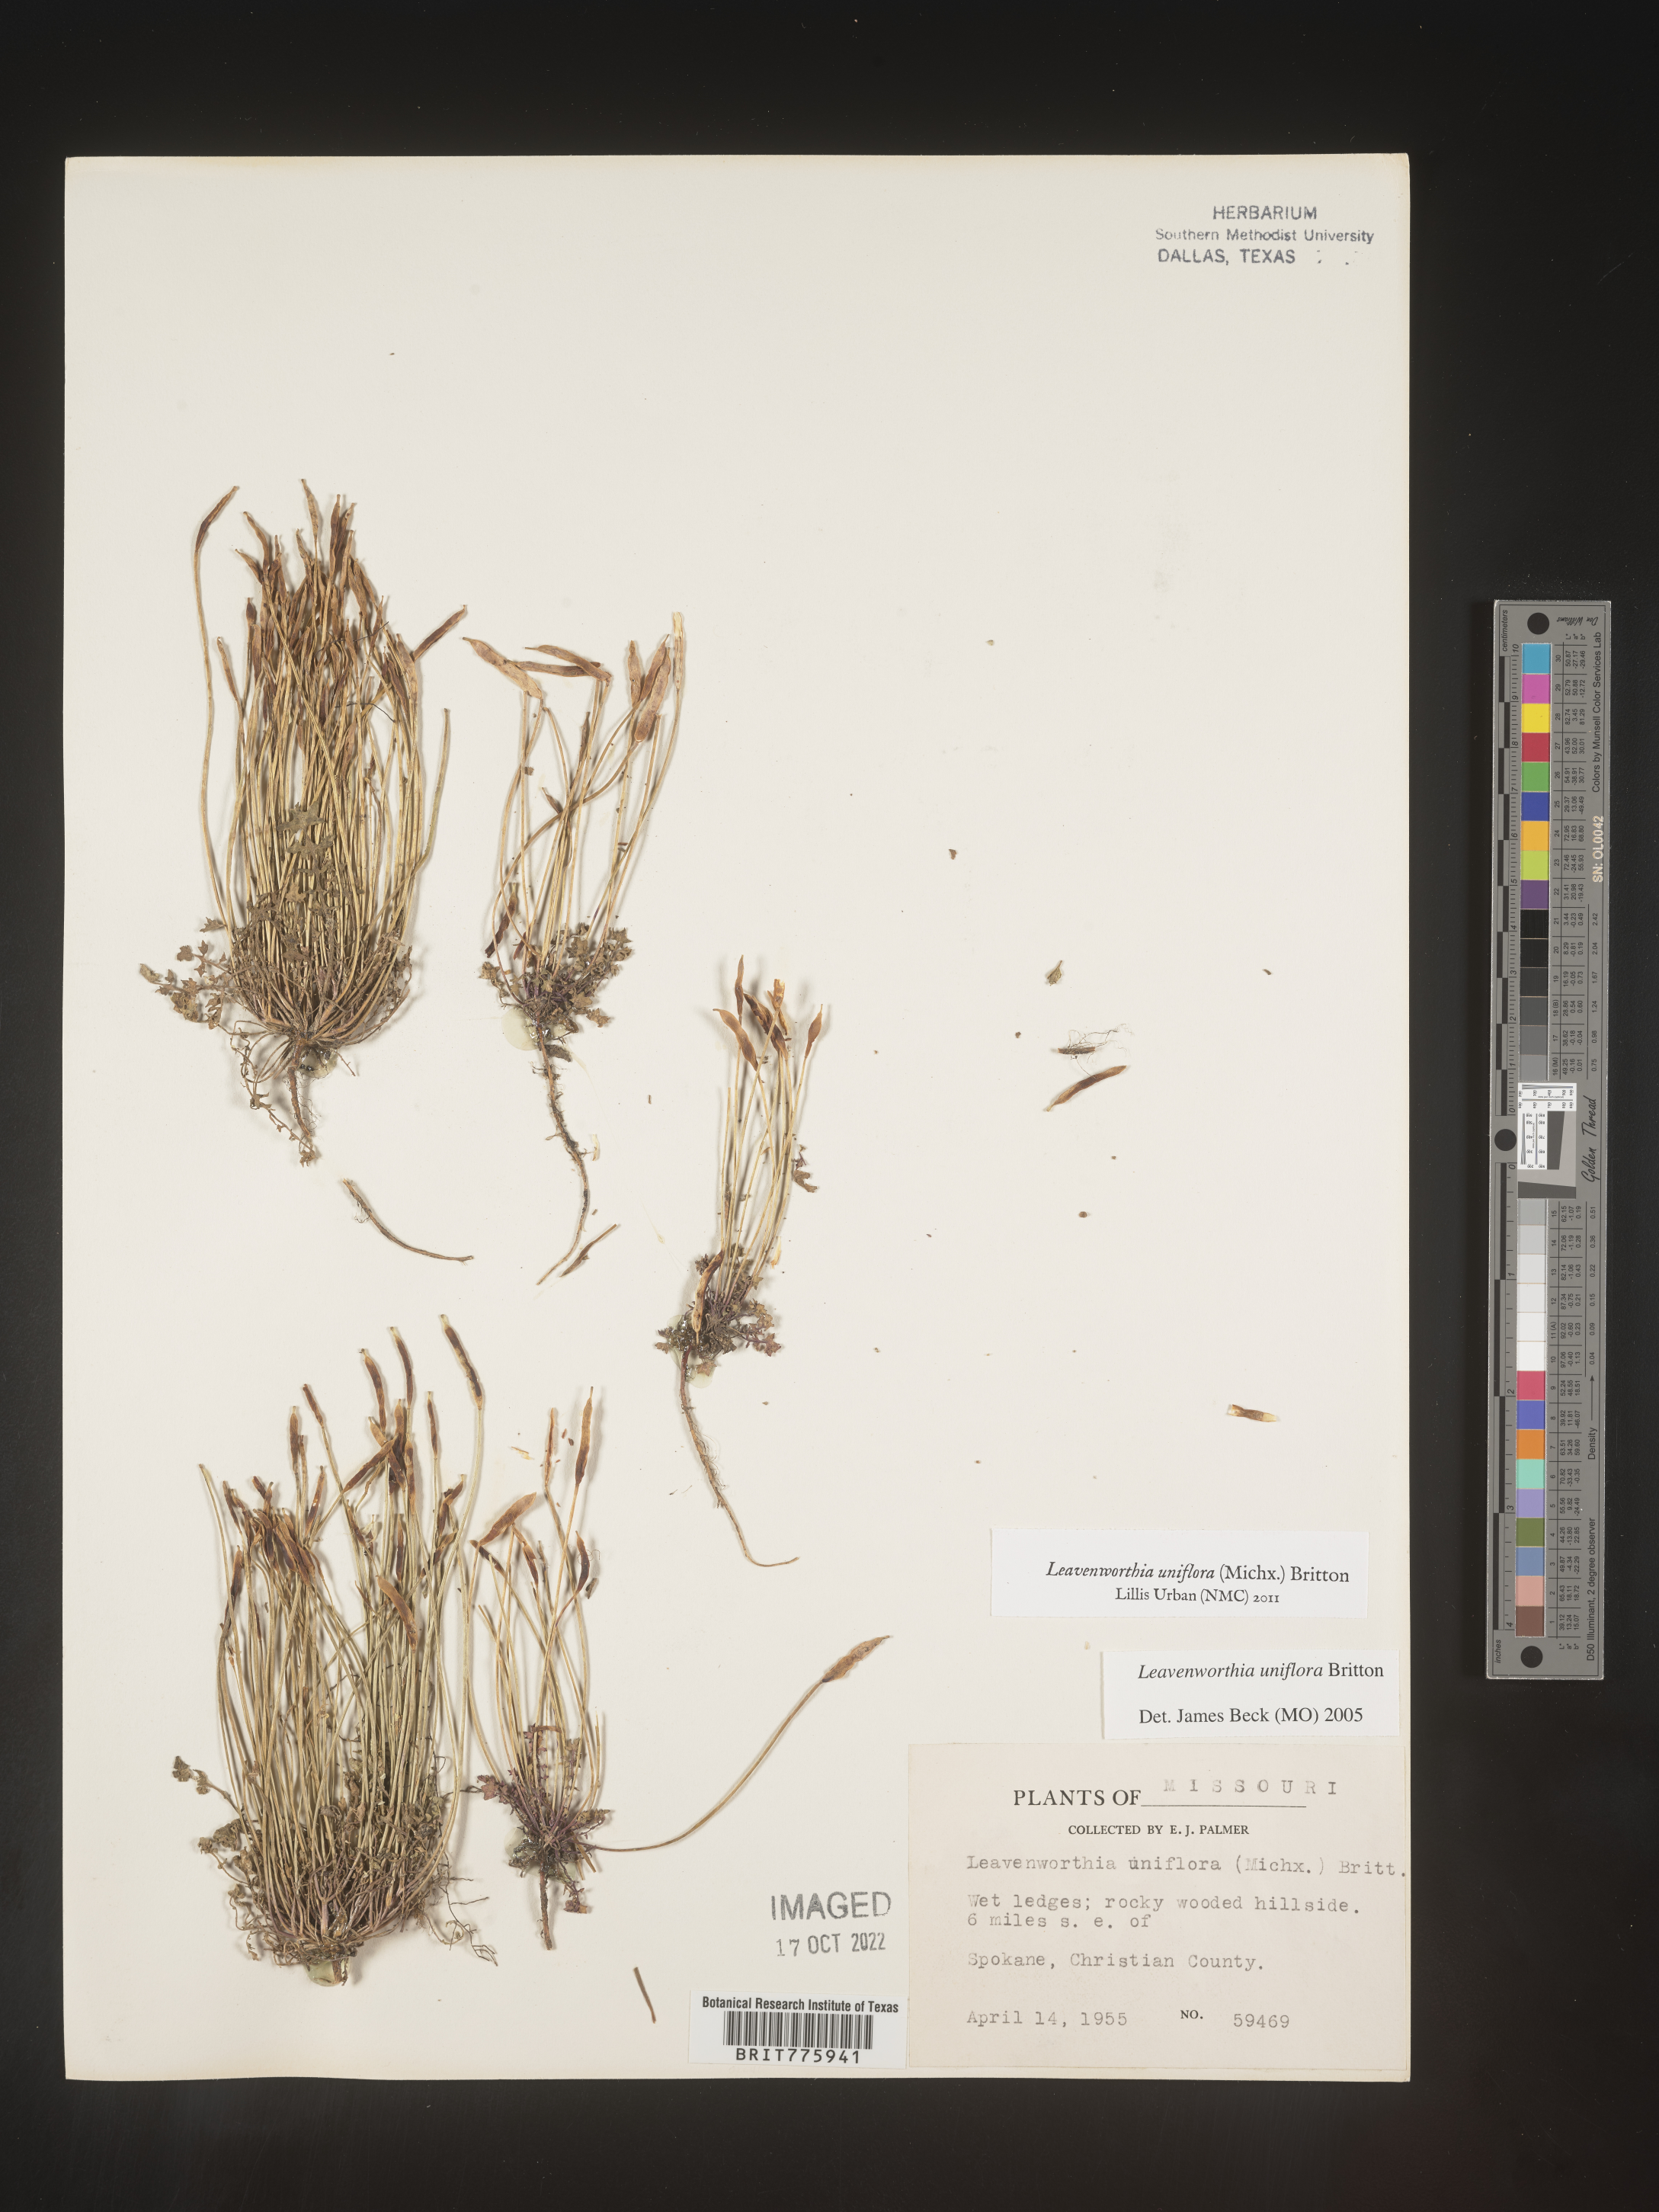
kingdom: Plantae
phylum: Tracheophyta
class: Magnoliopsida
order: Brassicales
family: Brassicaceae
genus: Leavenworthia
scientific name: Leavenworthia
